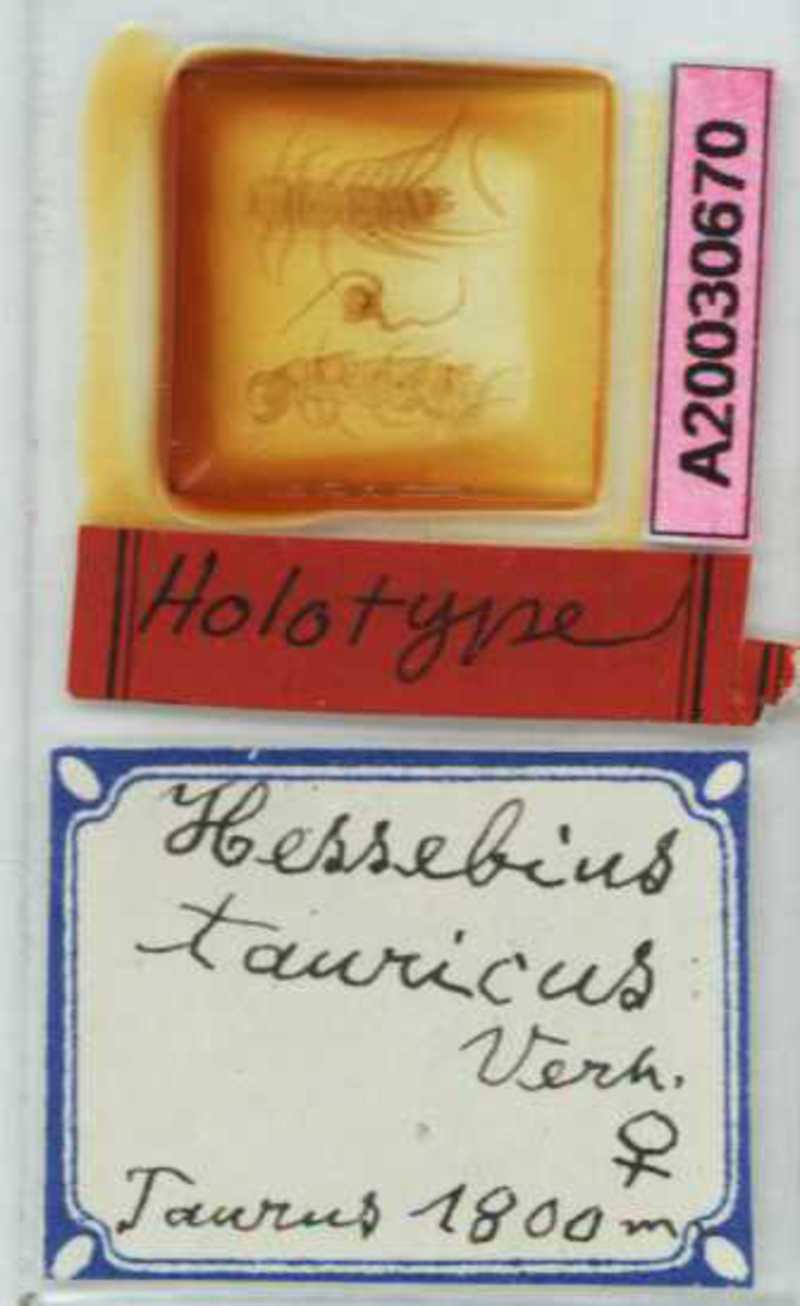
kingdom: Animalia
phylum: Arthropoda
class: Chilopoda
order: Lithobiomorpha
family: Lithobiidae
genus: Lithobius
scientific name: Lithobius parvicornis
